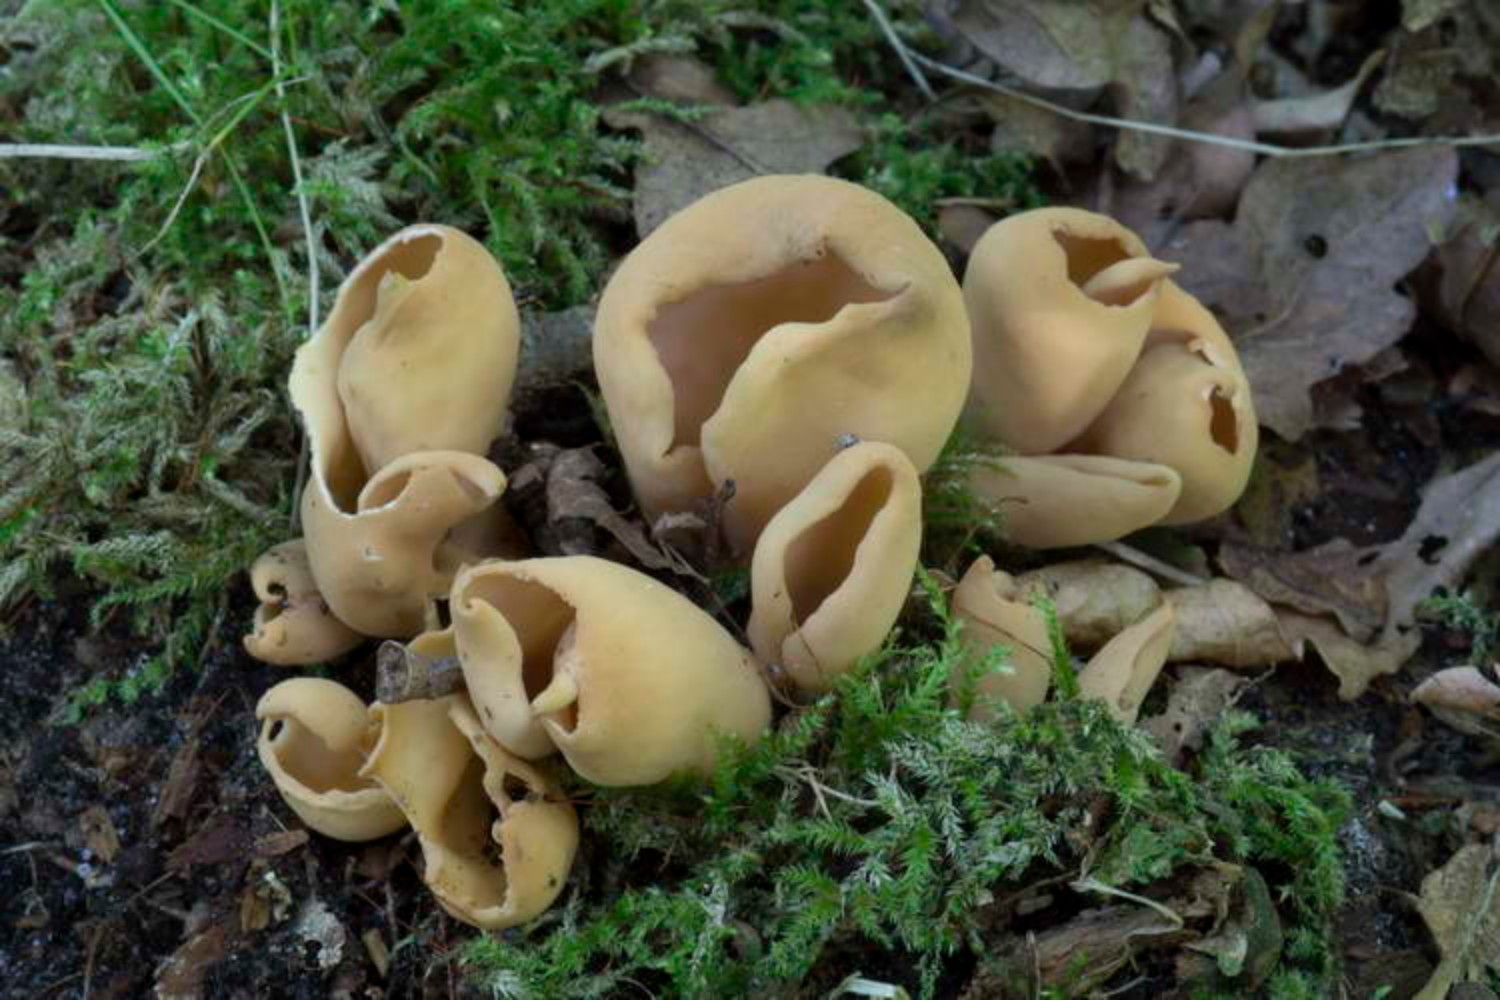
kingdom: Fungi
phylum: Ascomycota
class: Pezizomycetes
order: Pezizales
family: Otideaceae
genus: Otidea
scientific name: Otidea onotica
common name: æsel-ørebæger
